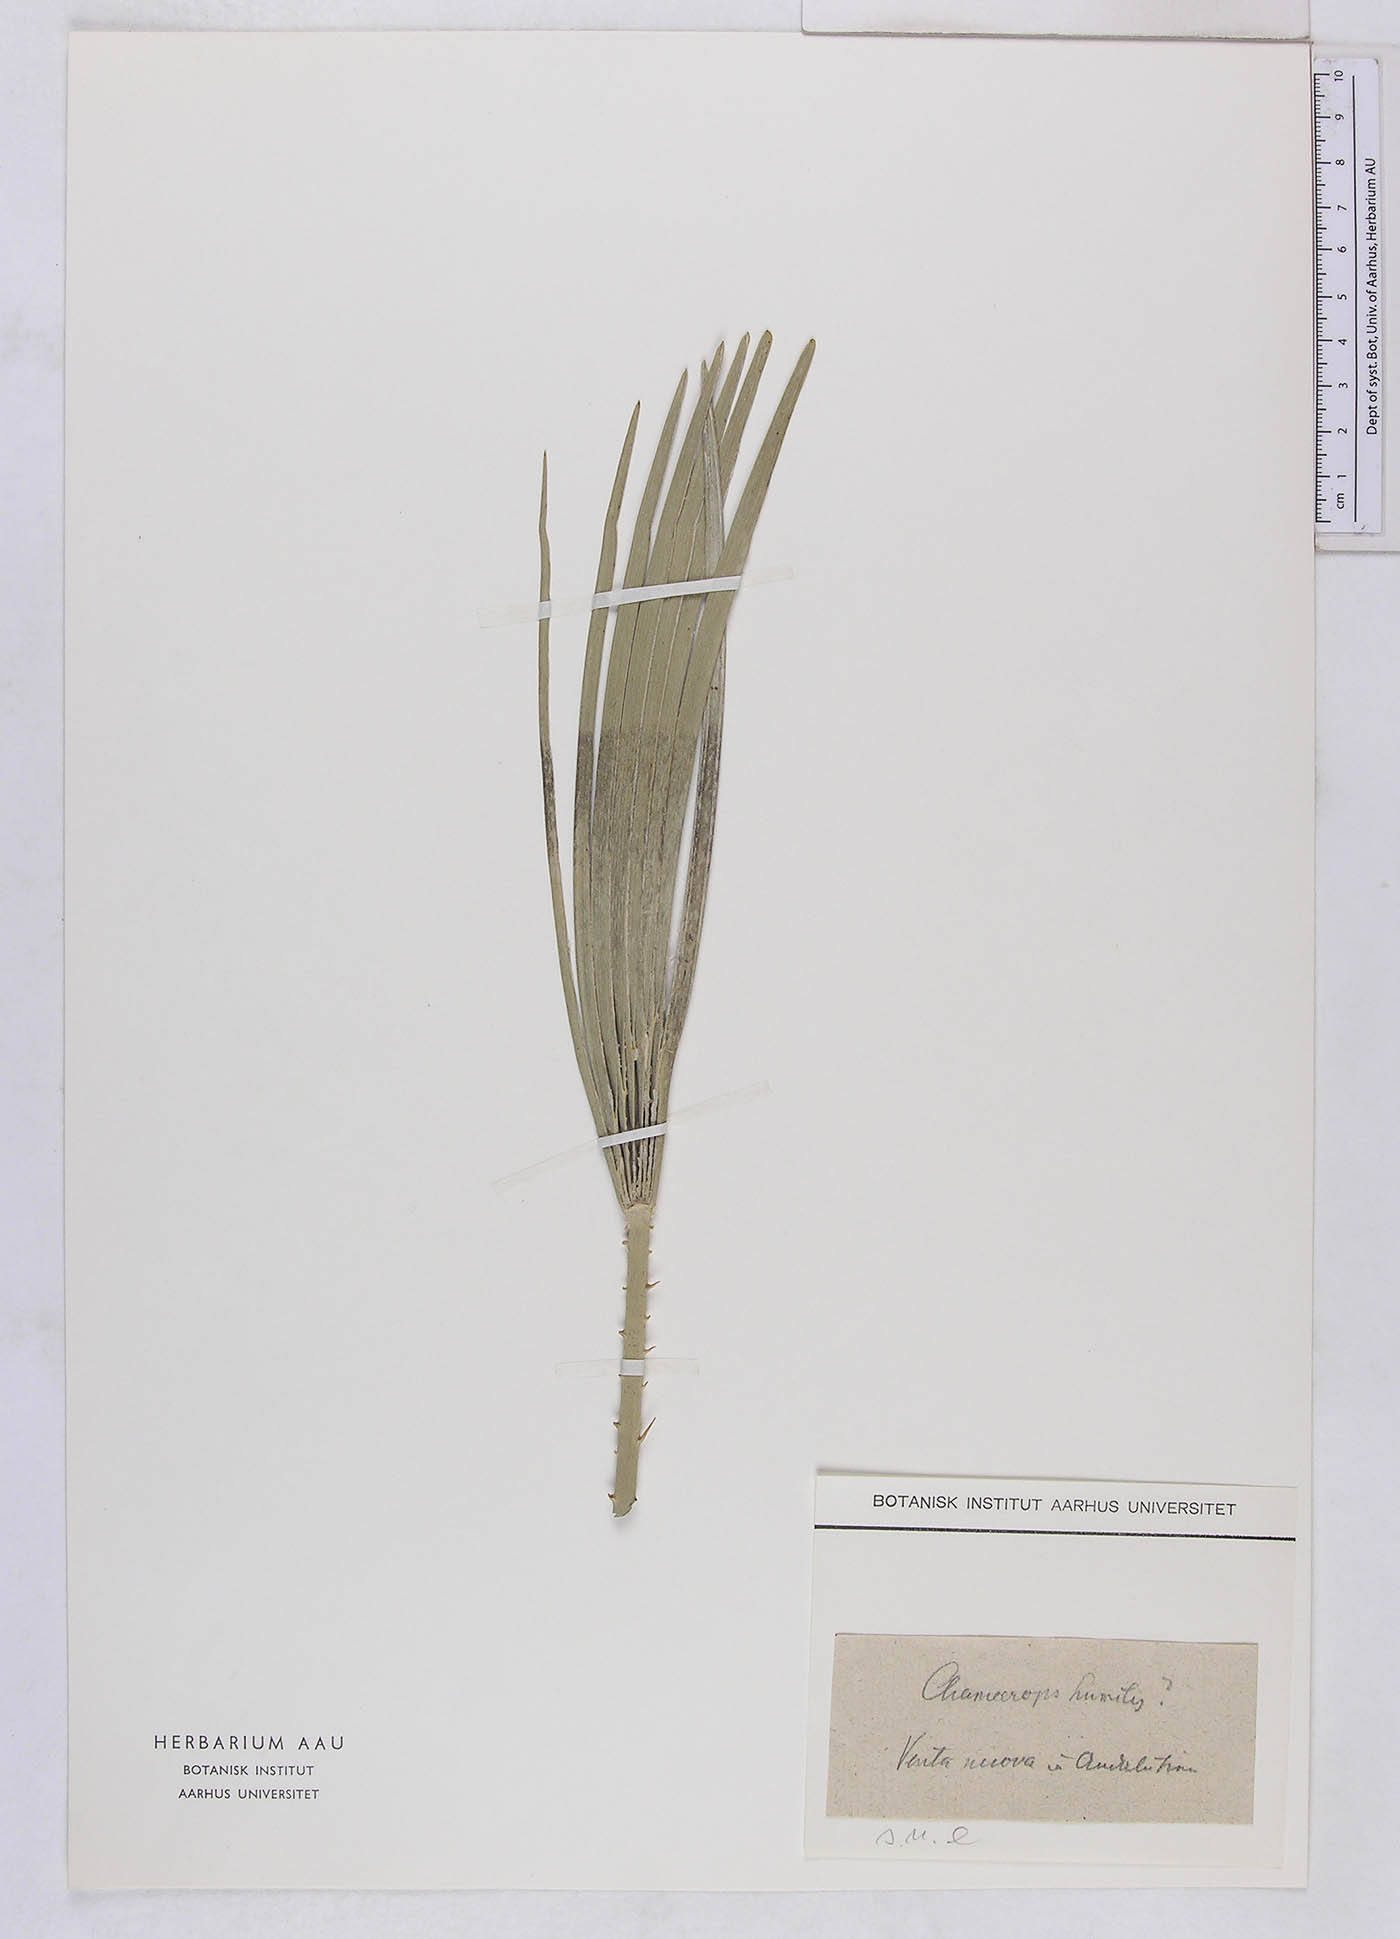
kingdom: Plantae
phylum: Tracheophyta
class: Liliopsida
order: Arecales
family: Arecaceae
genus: Chamaerops
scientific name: Chamaerops humilis
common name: Dwarf fan palm
